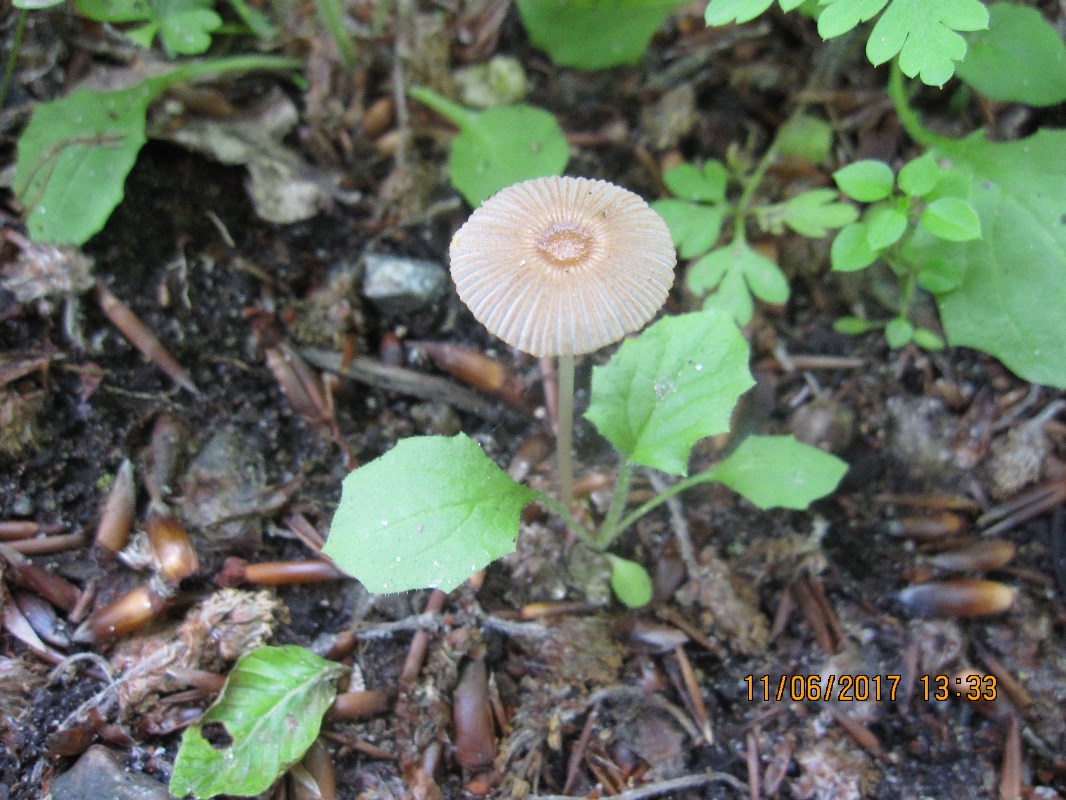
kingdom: Fungi
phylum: Basidiomycota
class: Agaricomycetes
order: Agaricales
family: Psathyrellaceae
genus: Parasola
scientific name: Parasola kuehneri
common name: skygge-hjulhat
